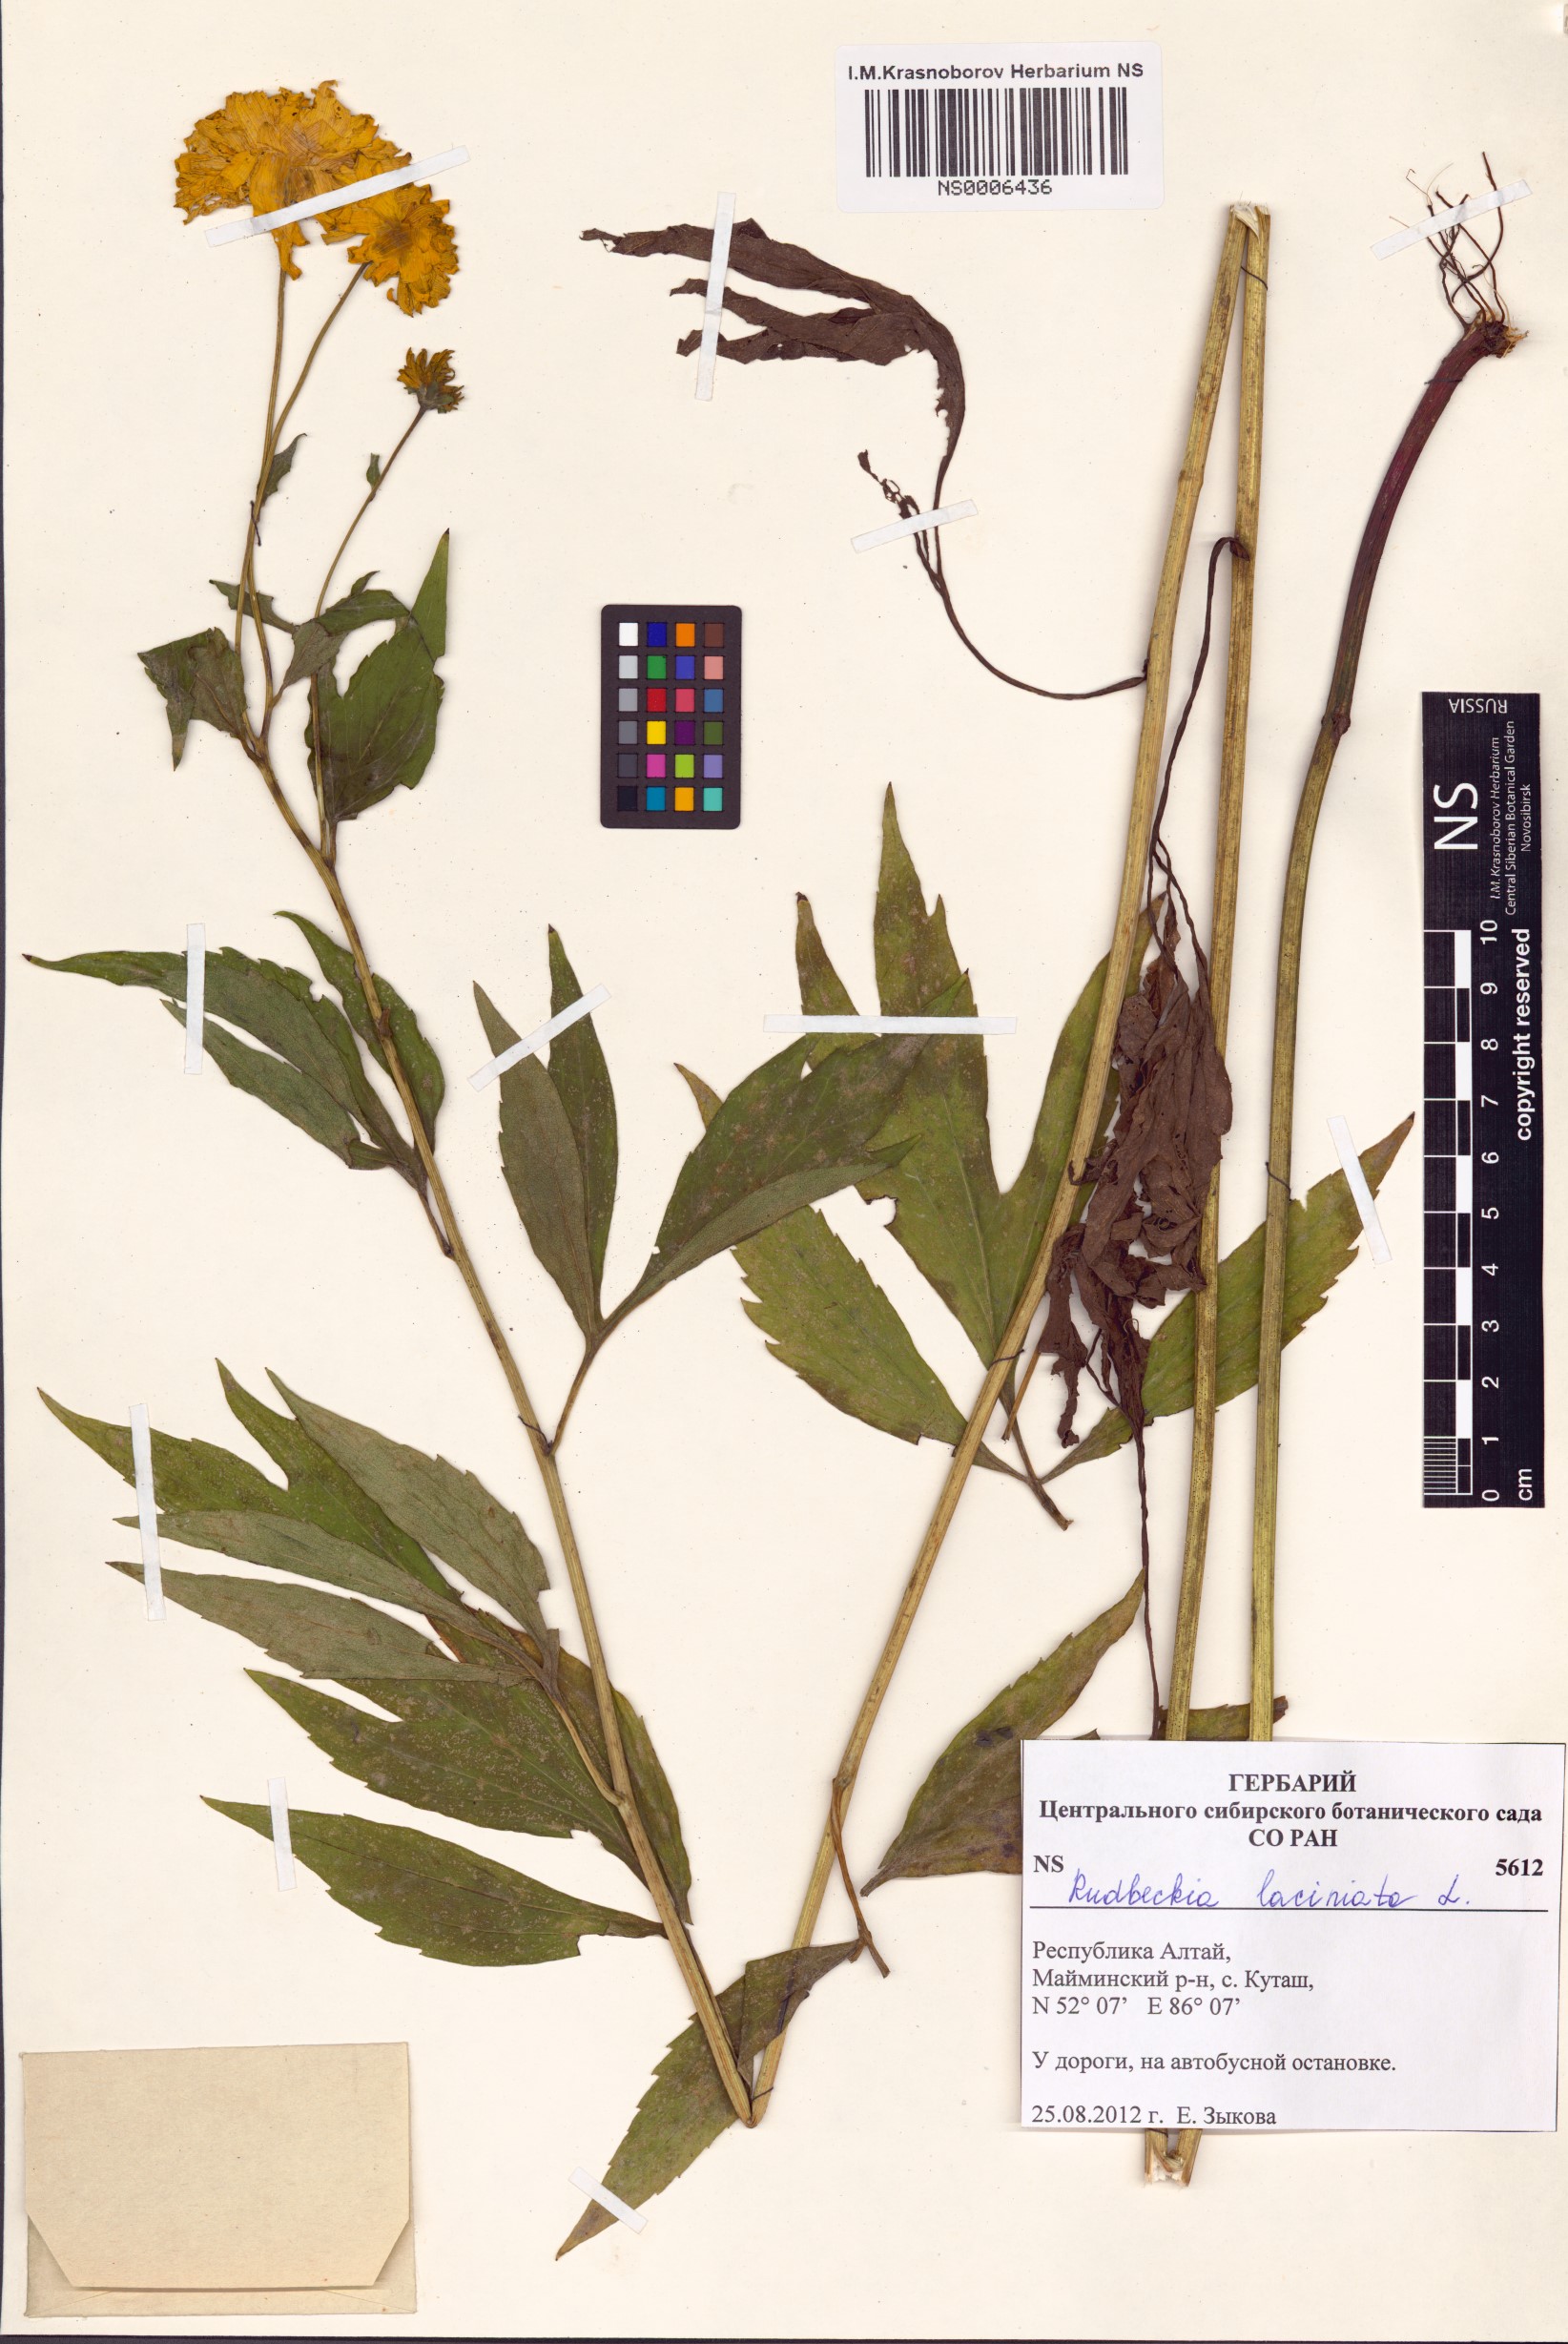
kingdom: Plantae
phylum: Tracheophyta
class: Magnoliopsida
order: Asterales
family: Asteraceae
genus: Rudbeckia
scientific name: Rudbeckia laciniata
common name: Coneflower
